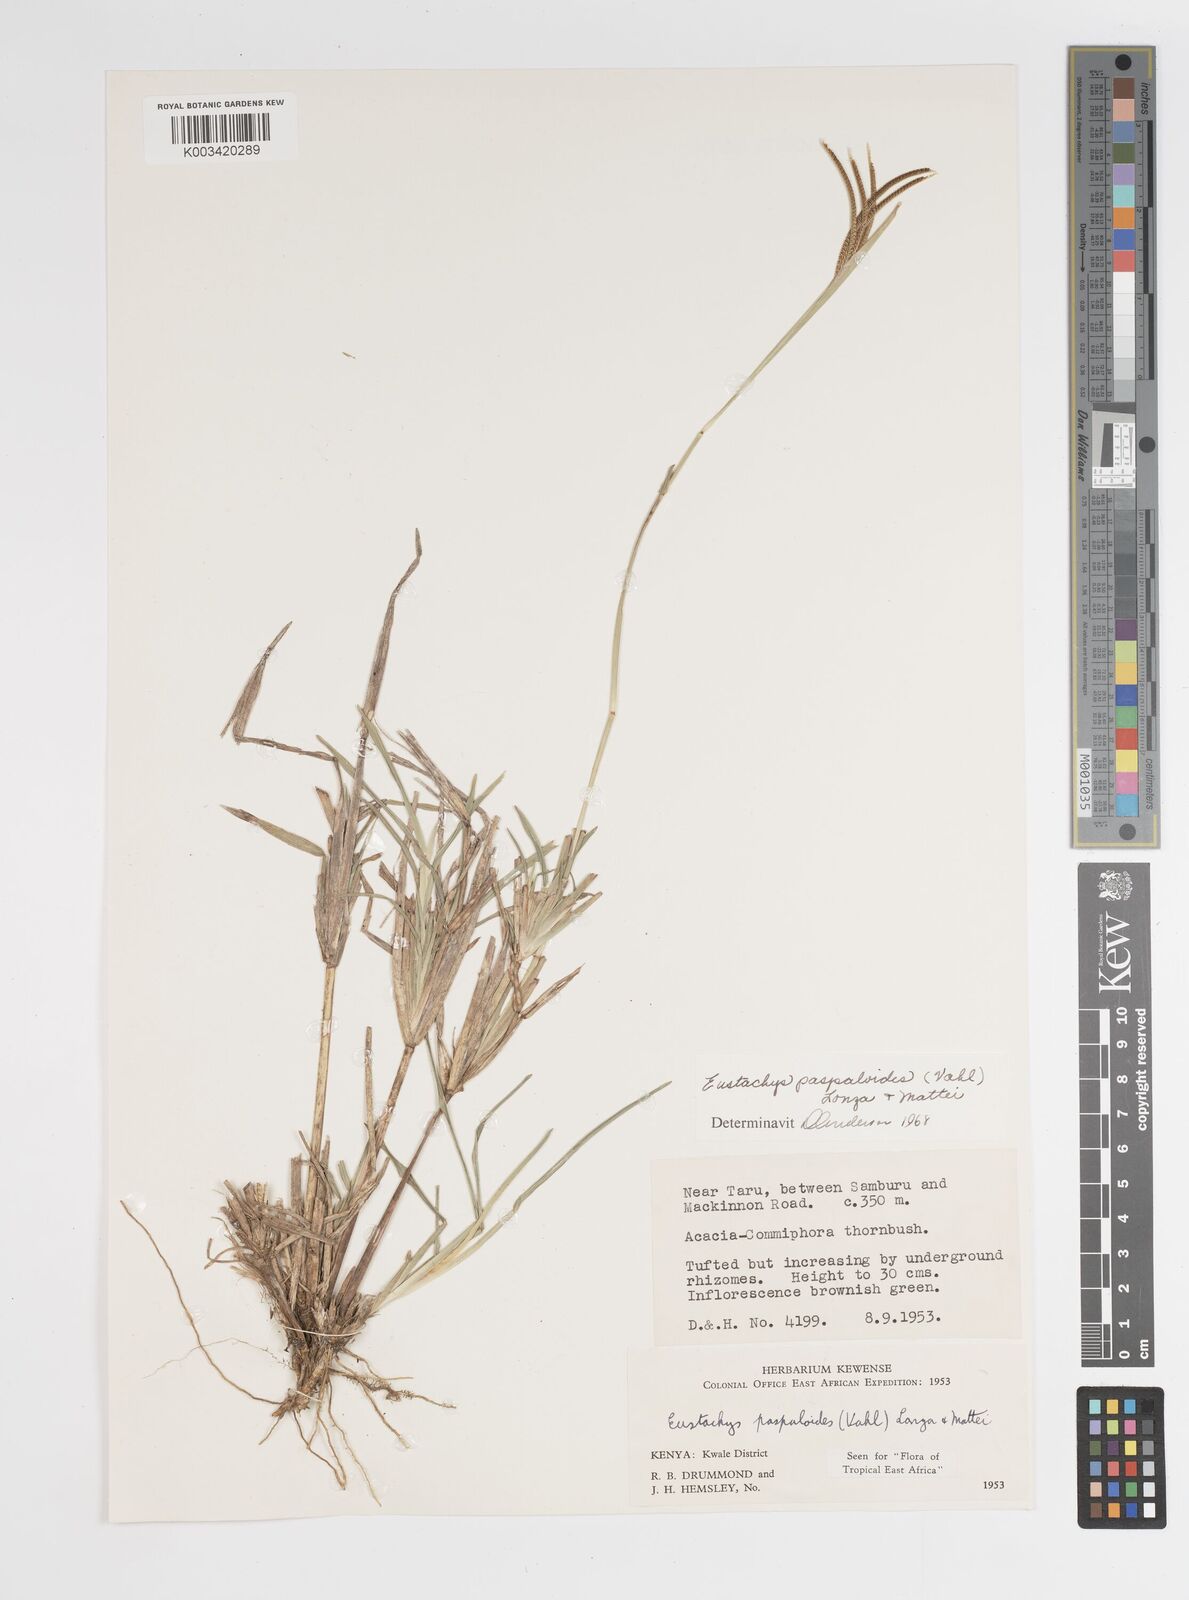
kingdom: Plantae
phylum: Tracheophyta
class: Liliopsida
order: Poales
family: Poaceae
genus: Eustachys
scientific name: Eustachys paspaloides
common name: Caribbean fingergrass
